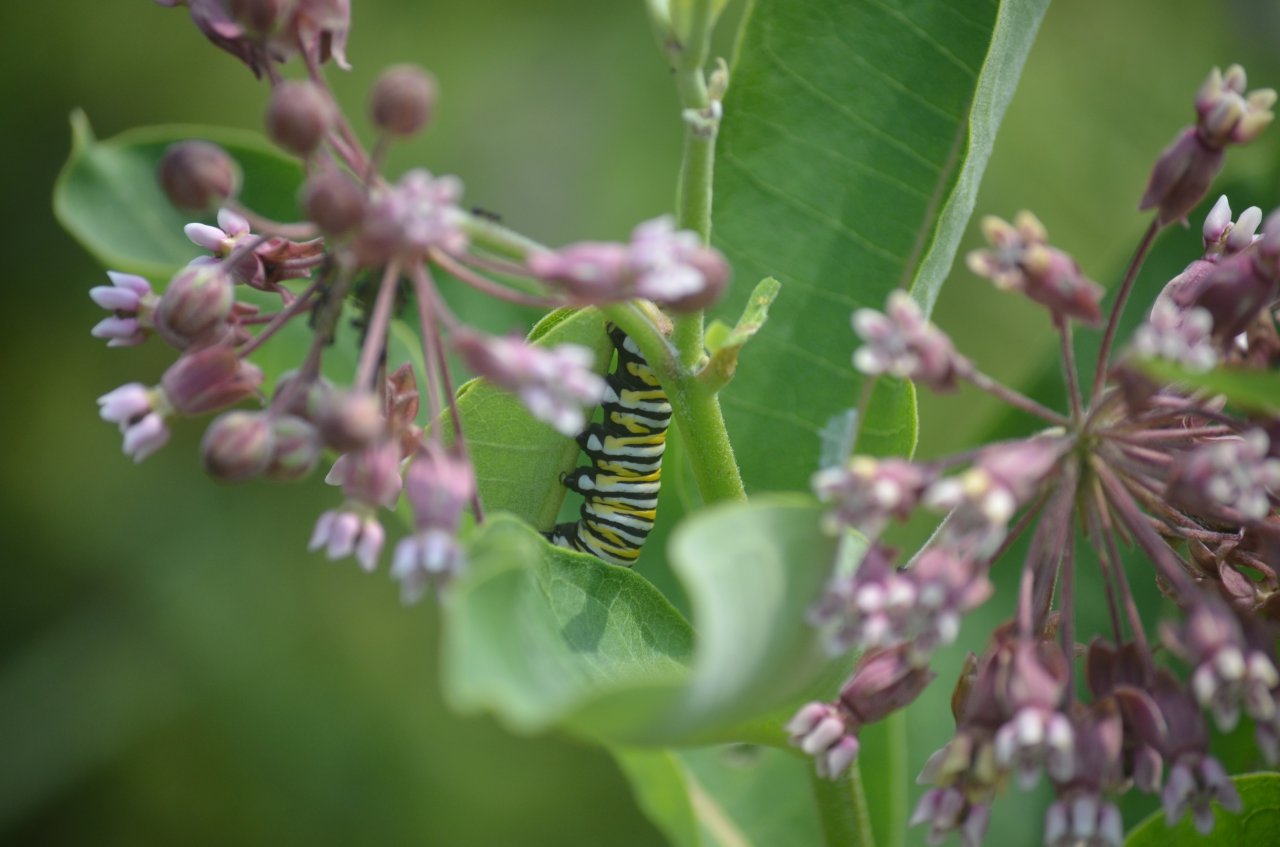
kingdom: Animalia
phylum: Arthropoda
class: Insecta
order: Lepidoptera
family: Nymphalidae
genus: Danaus
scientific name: Danaus plexippus
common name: Monarch
